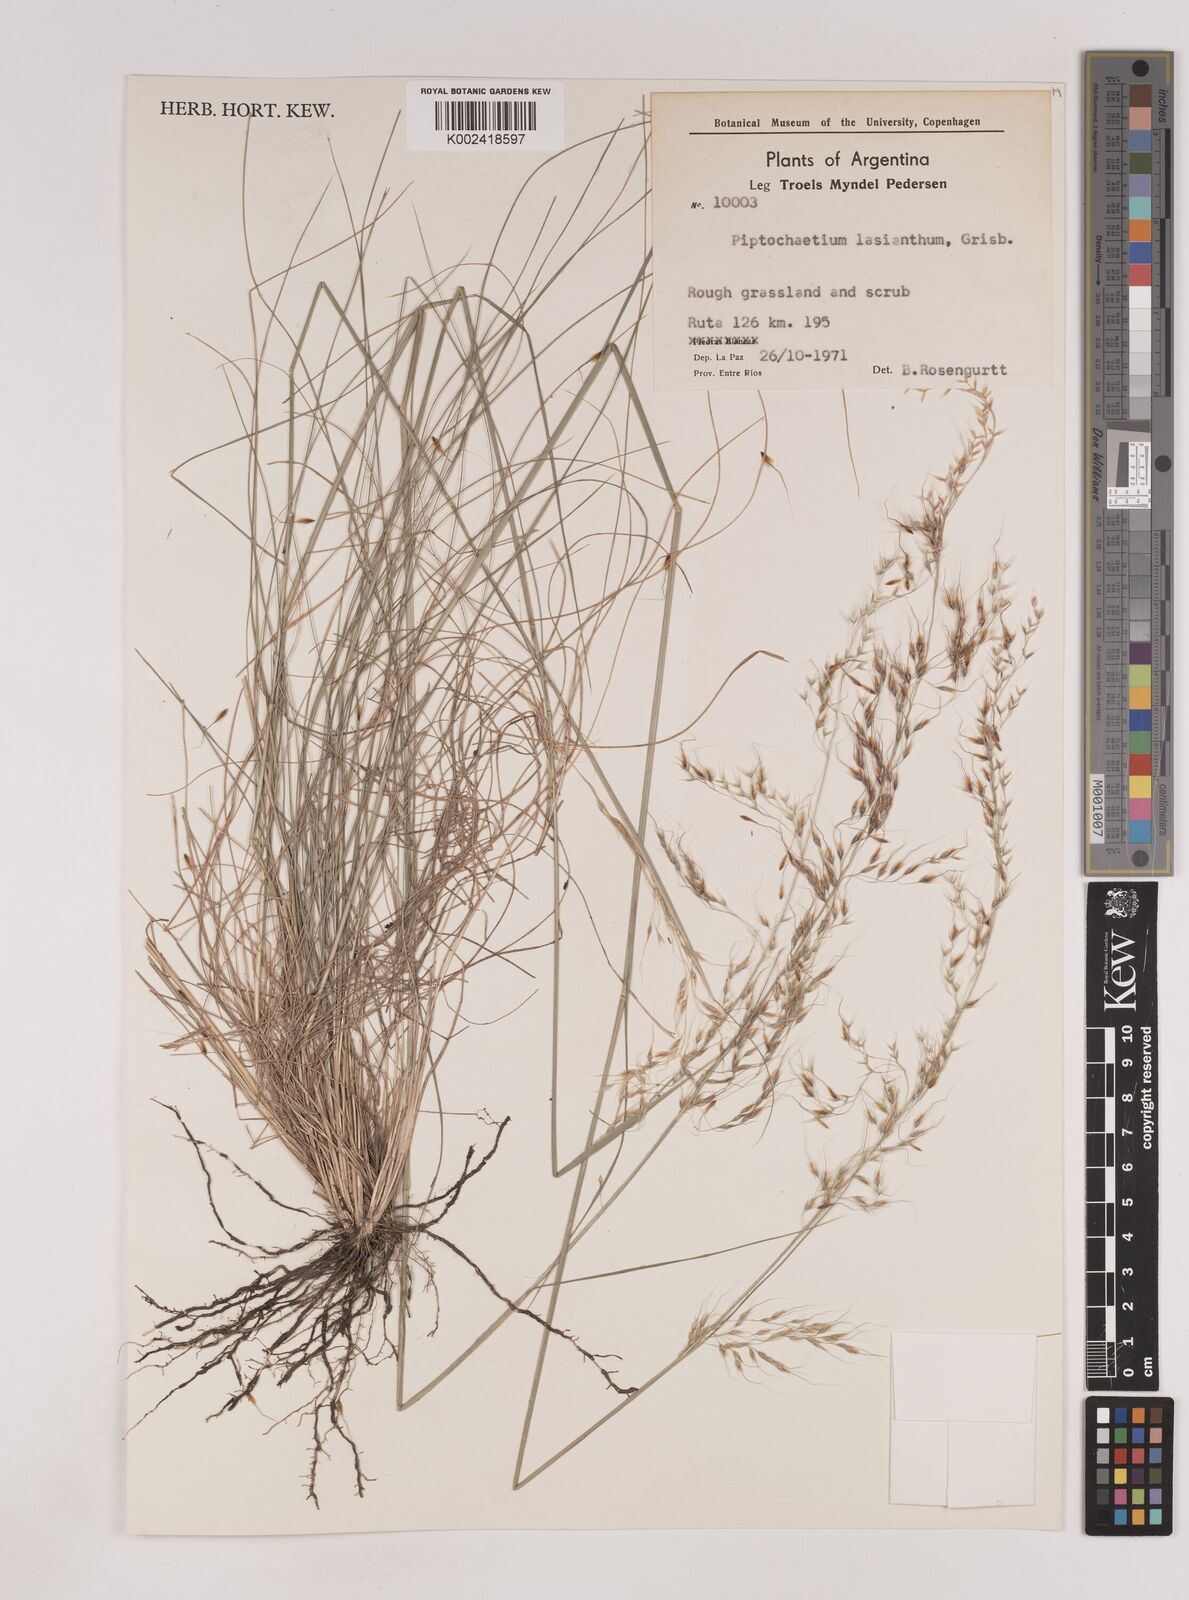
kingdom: Plantae
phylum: Tracheophyta
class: Liliopsida
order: Poales
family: Poaceae
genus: Piptochaetium
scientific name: Piptochaetium lasianthum
